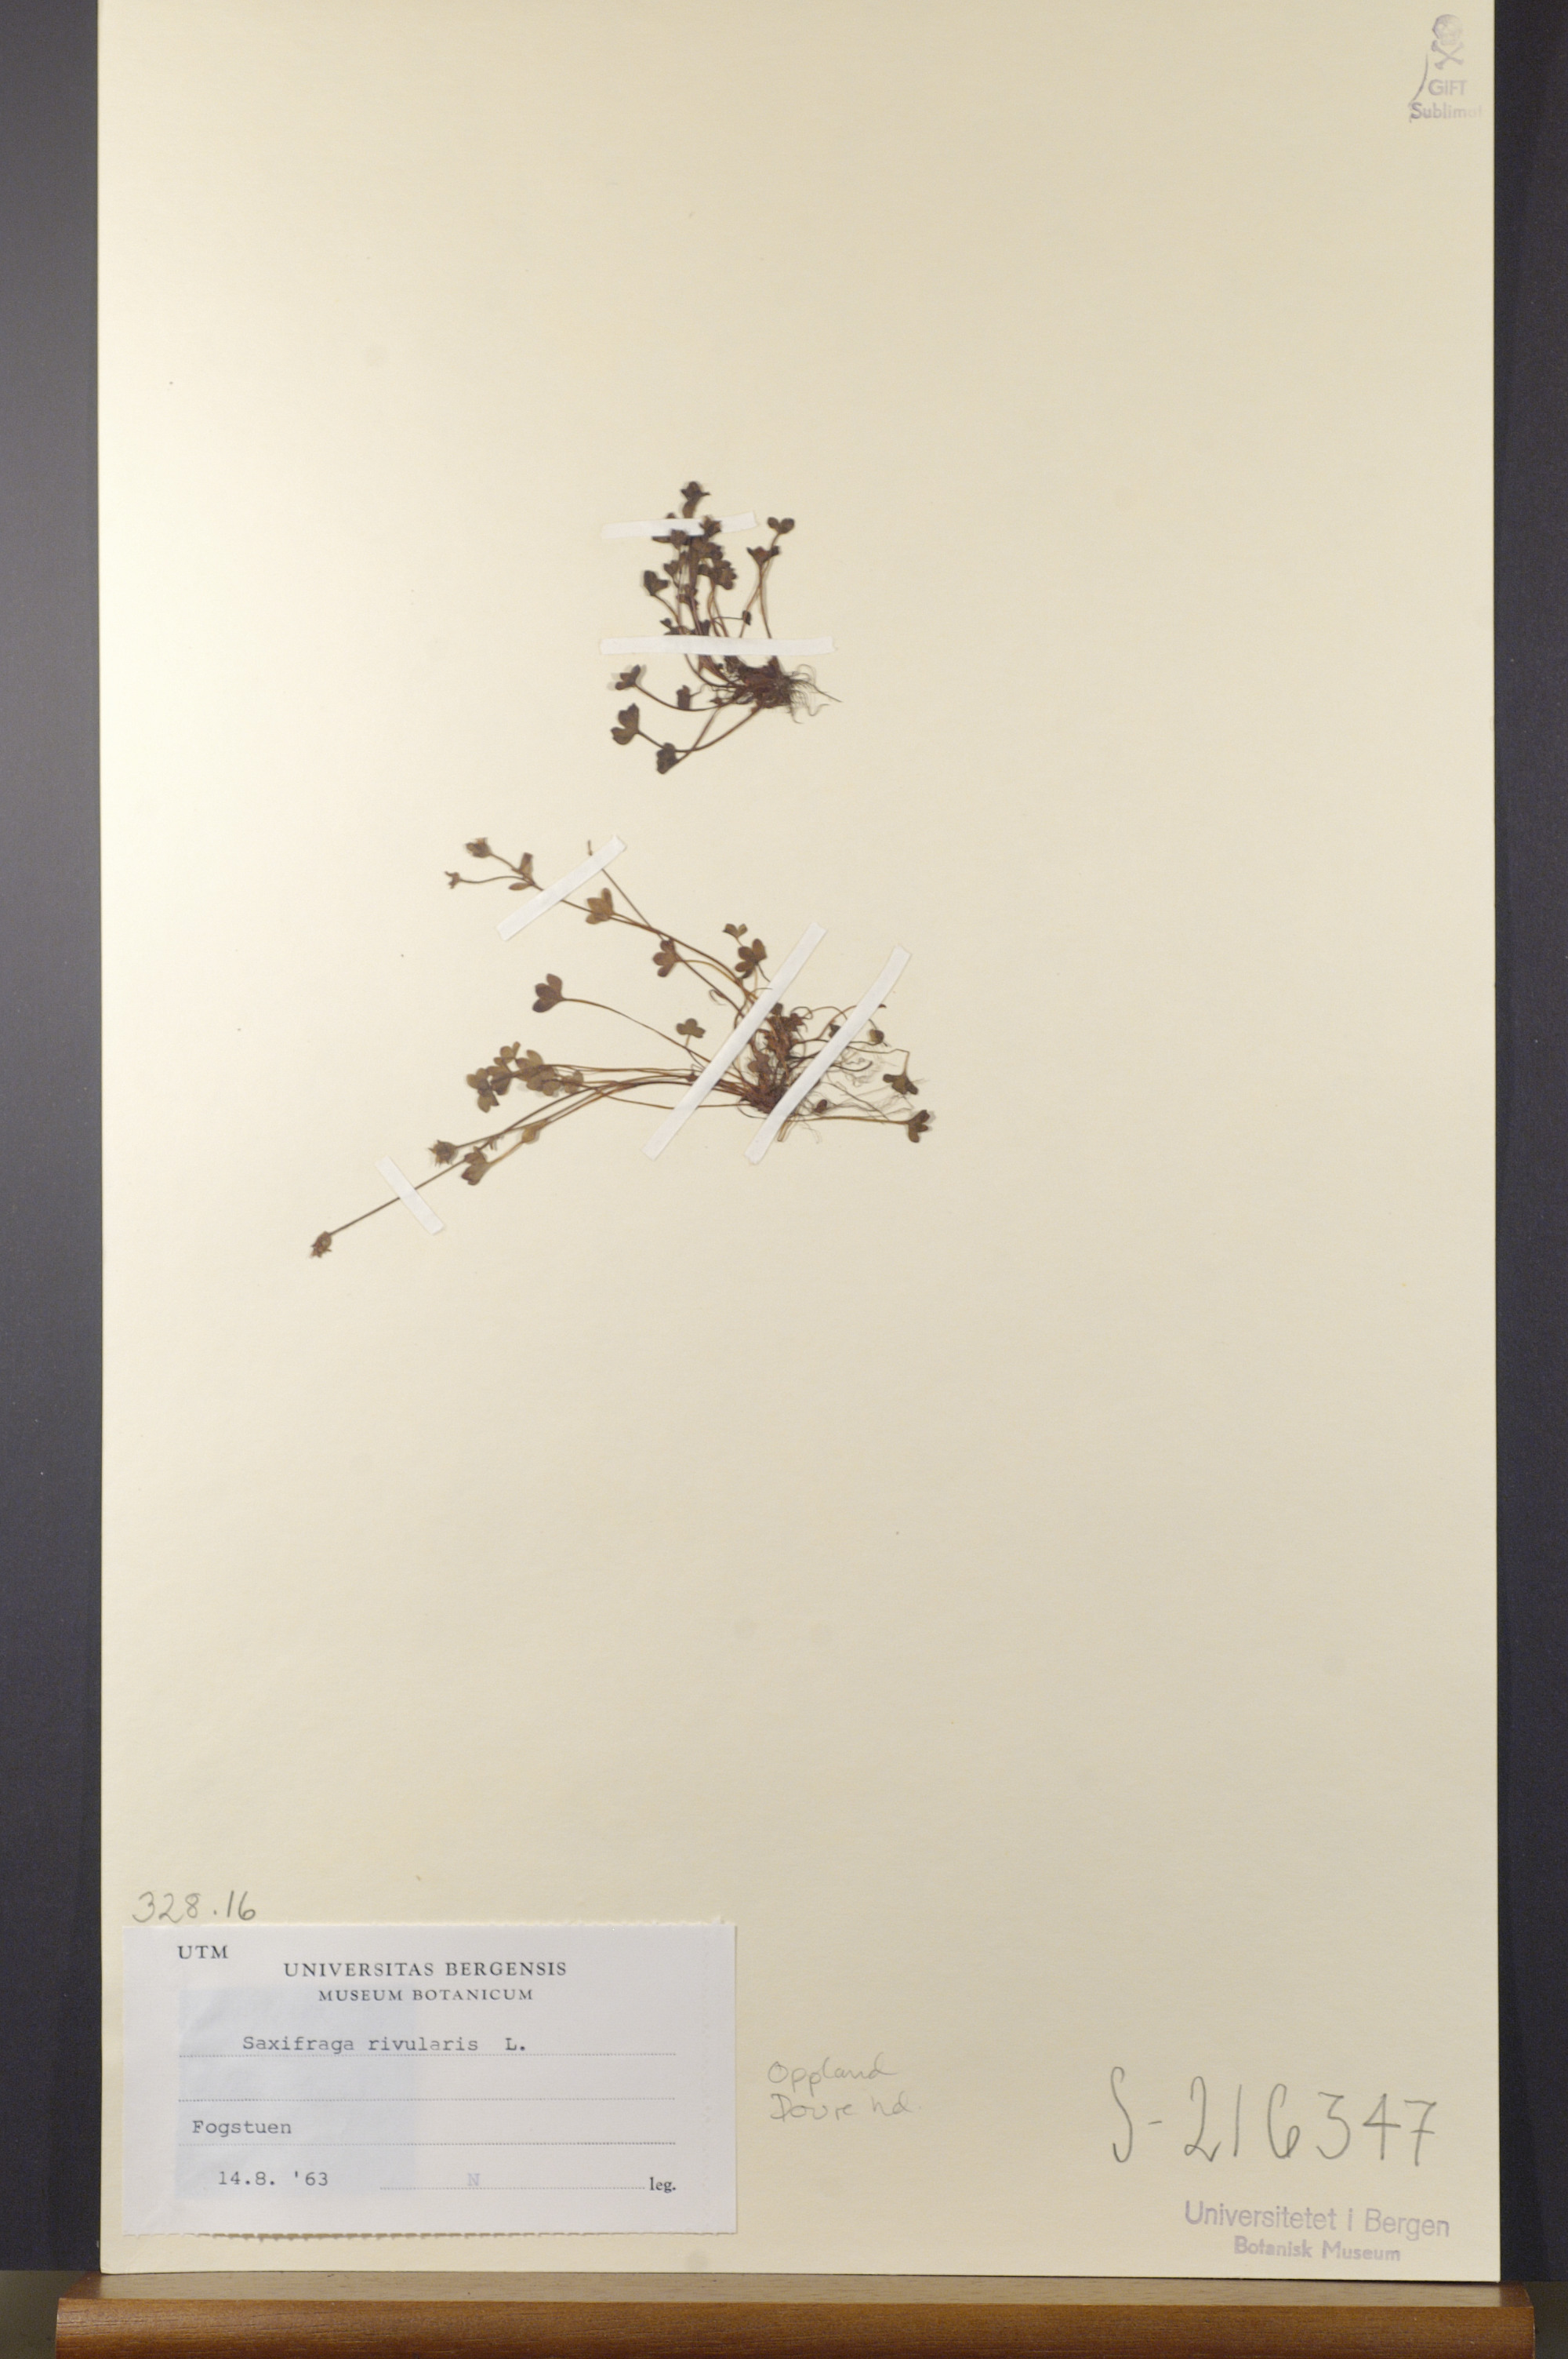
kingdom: Plantae
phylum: Tracheophyta
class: Magnoliopsida
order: Saxifragales
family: Saxifragaceae
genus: Saxifraga
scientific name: Saxifraga rivularis
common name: Highland saxifrage
